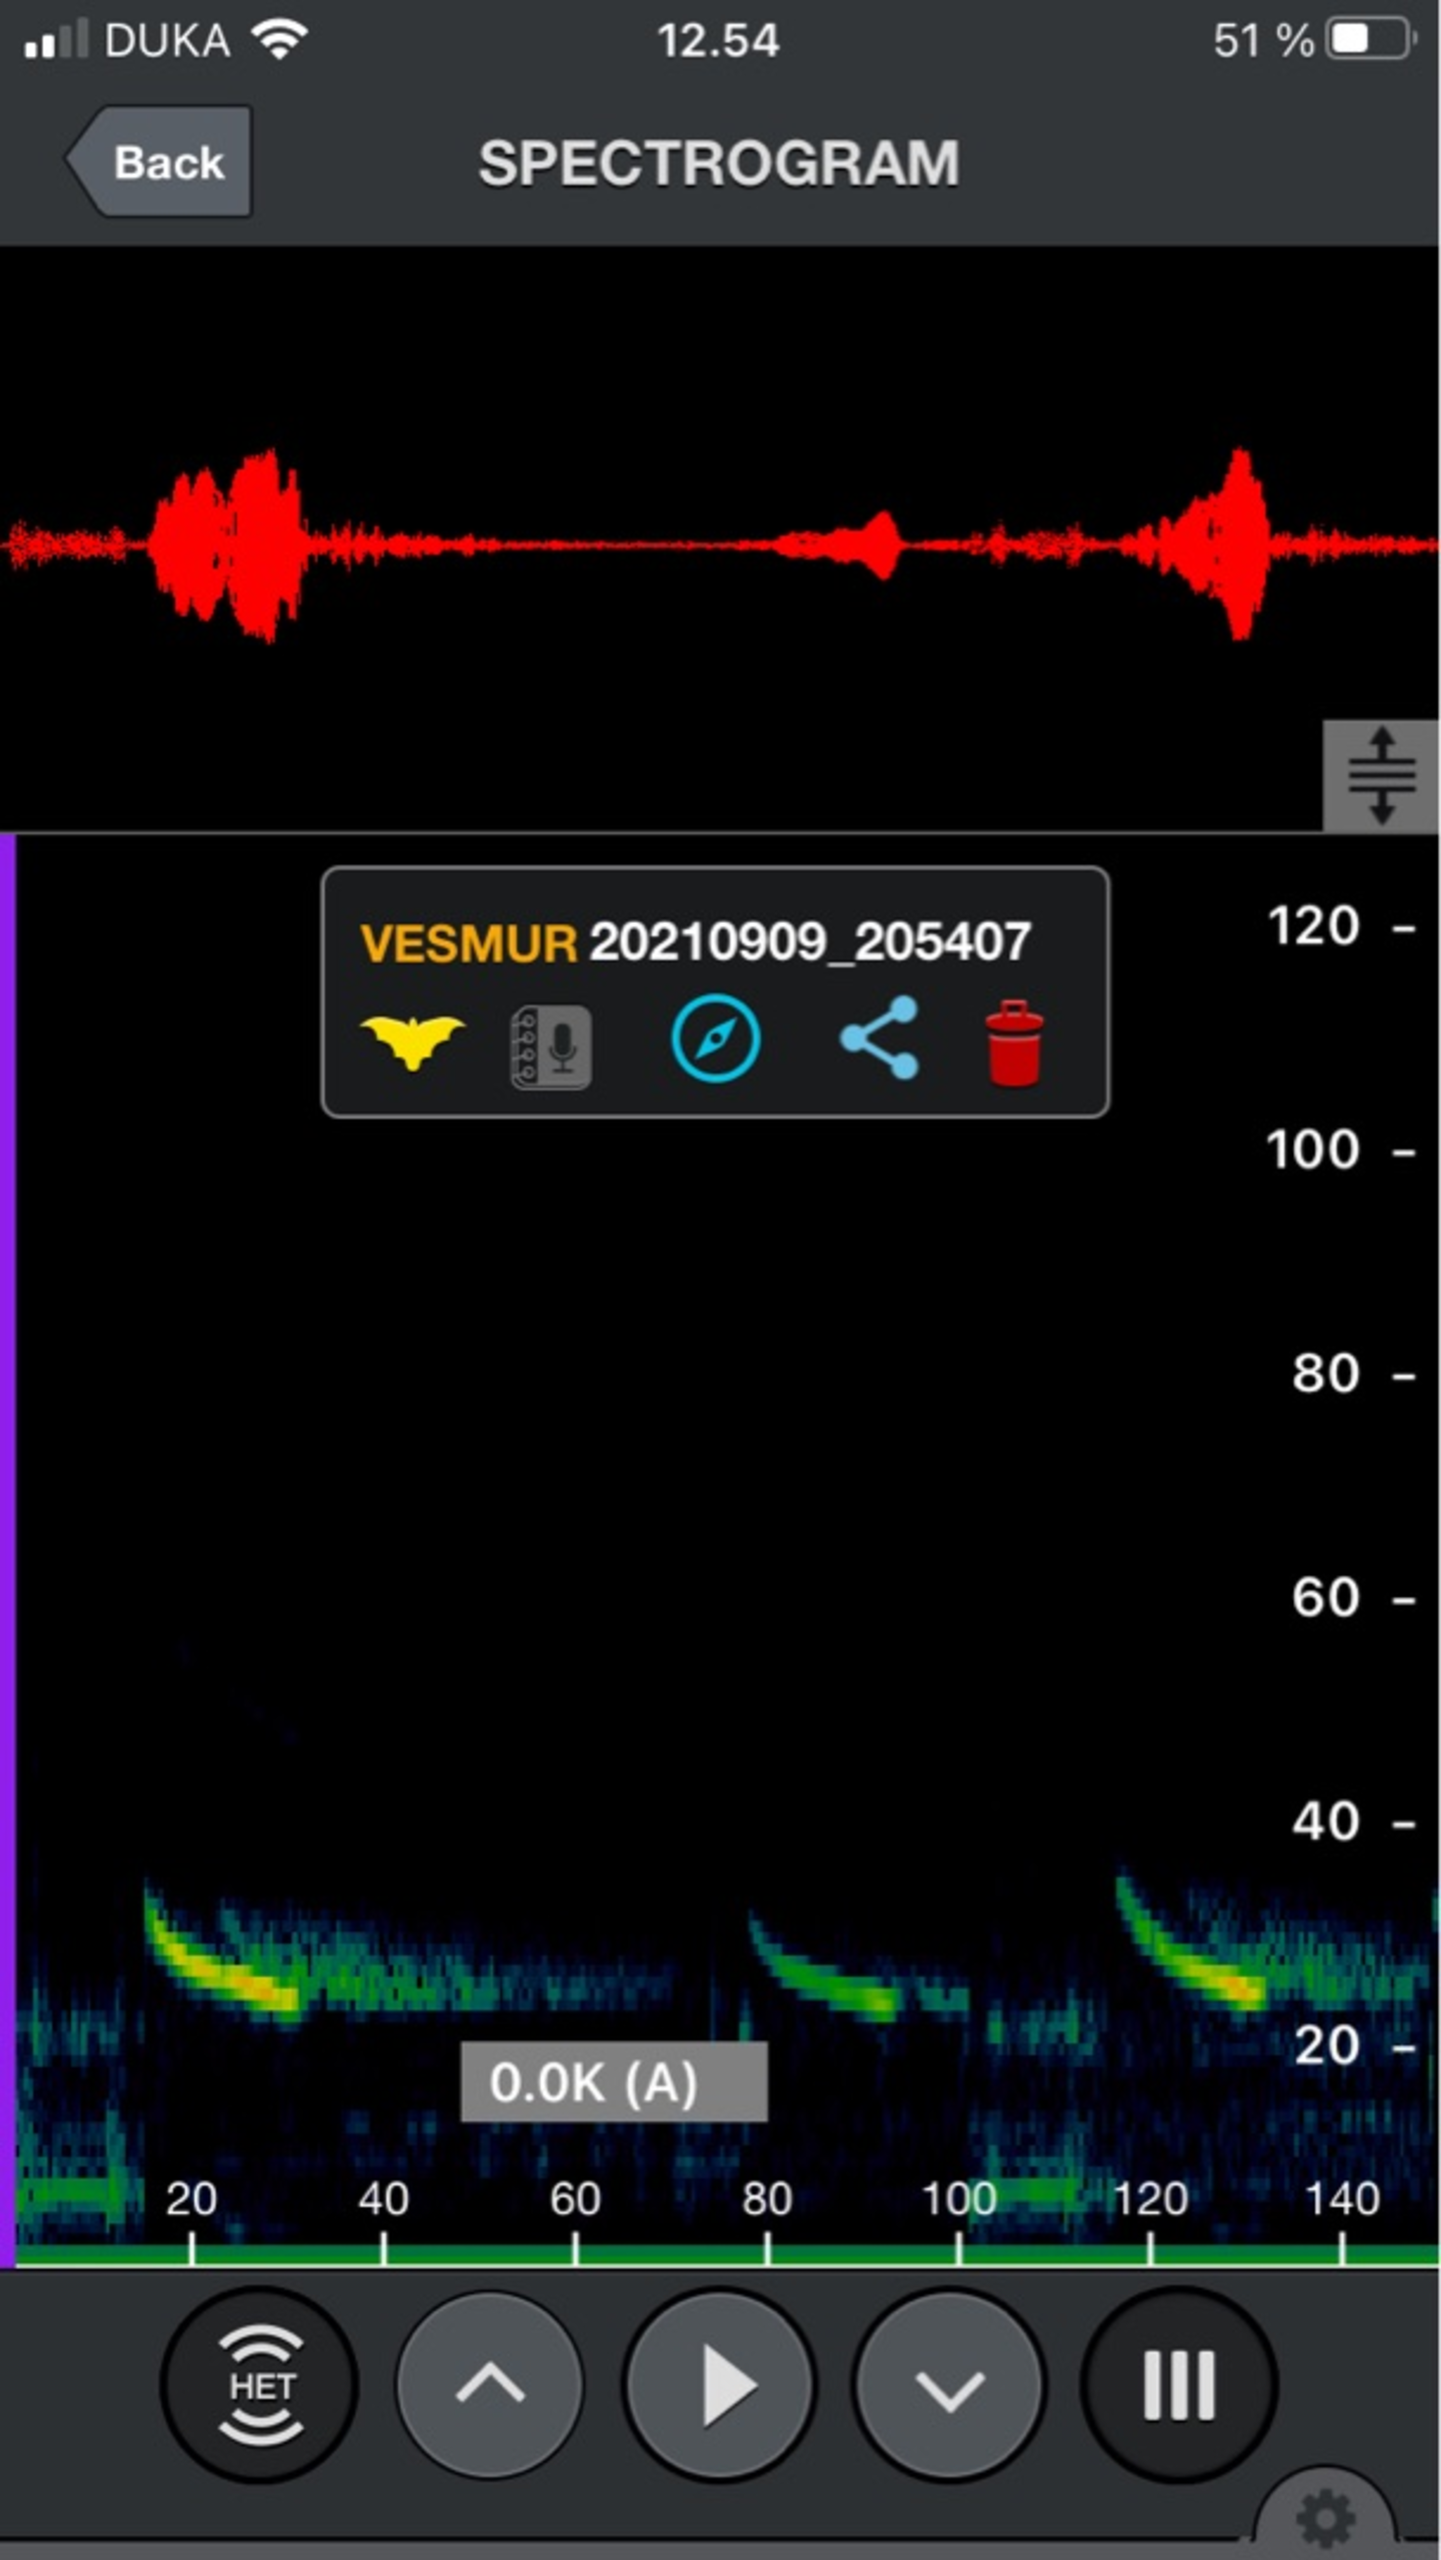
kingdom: Animalia
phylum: Chordata
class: Mammalia
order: Chiroptera
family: Vespertilionidae
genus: Vespertilio
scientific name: Vespertilio murinus
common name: Skimmelflagermus
